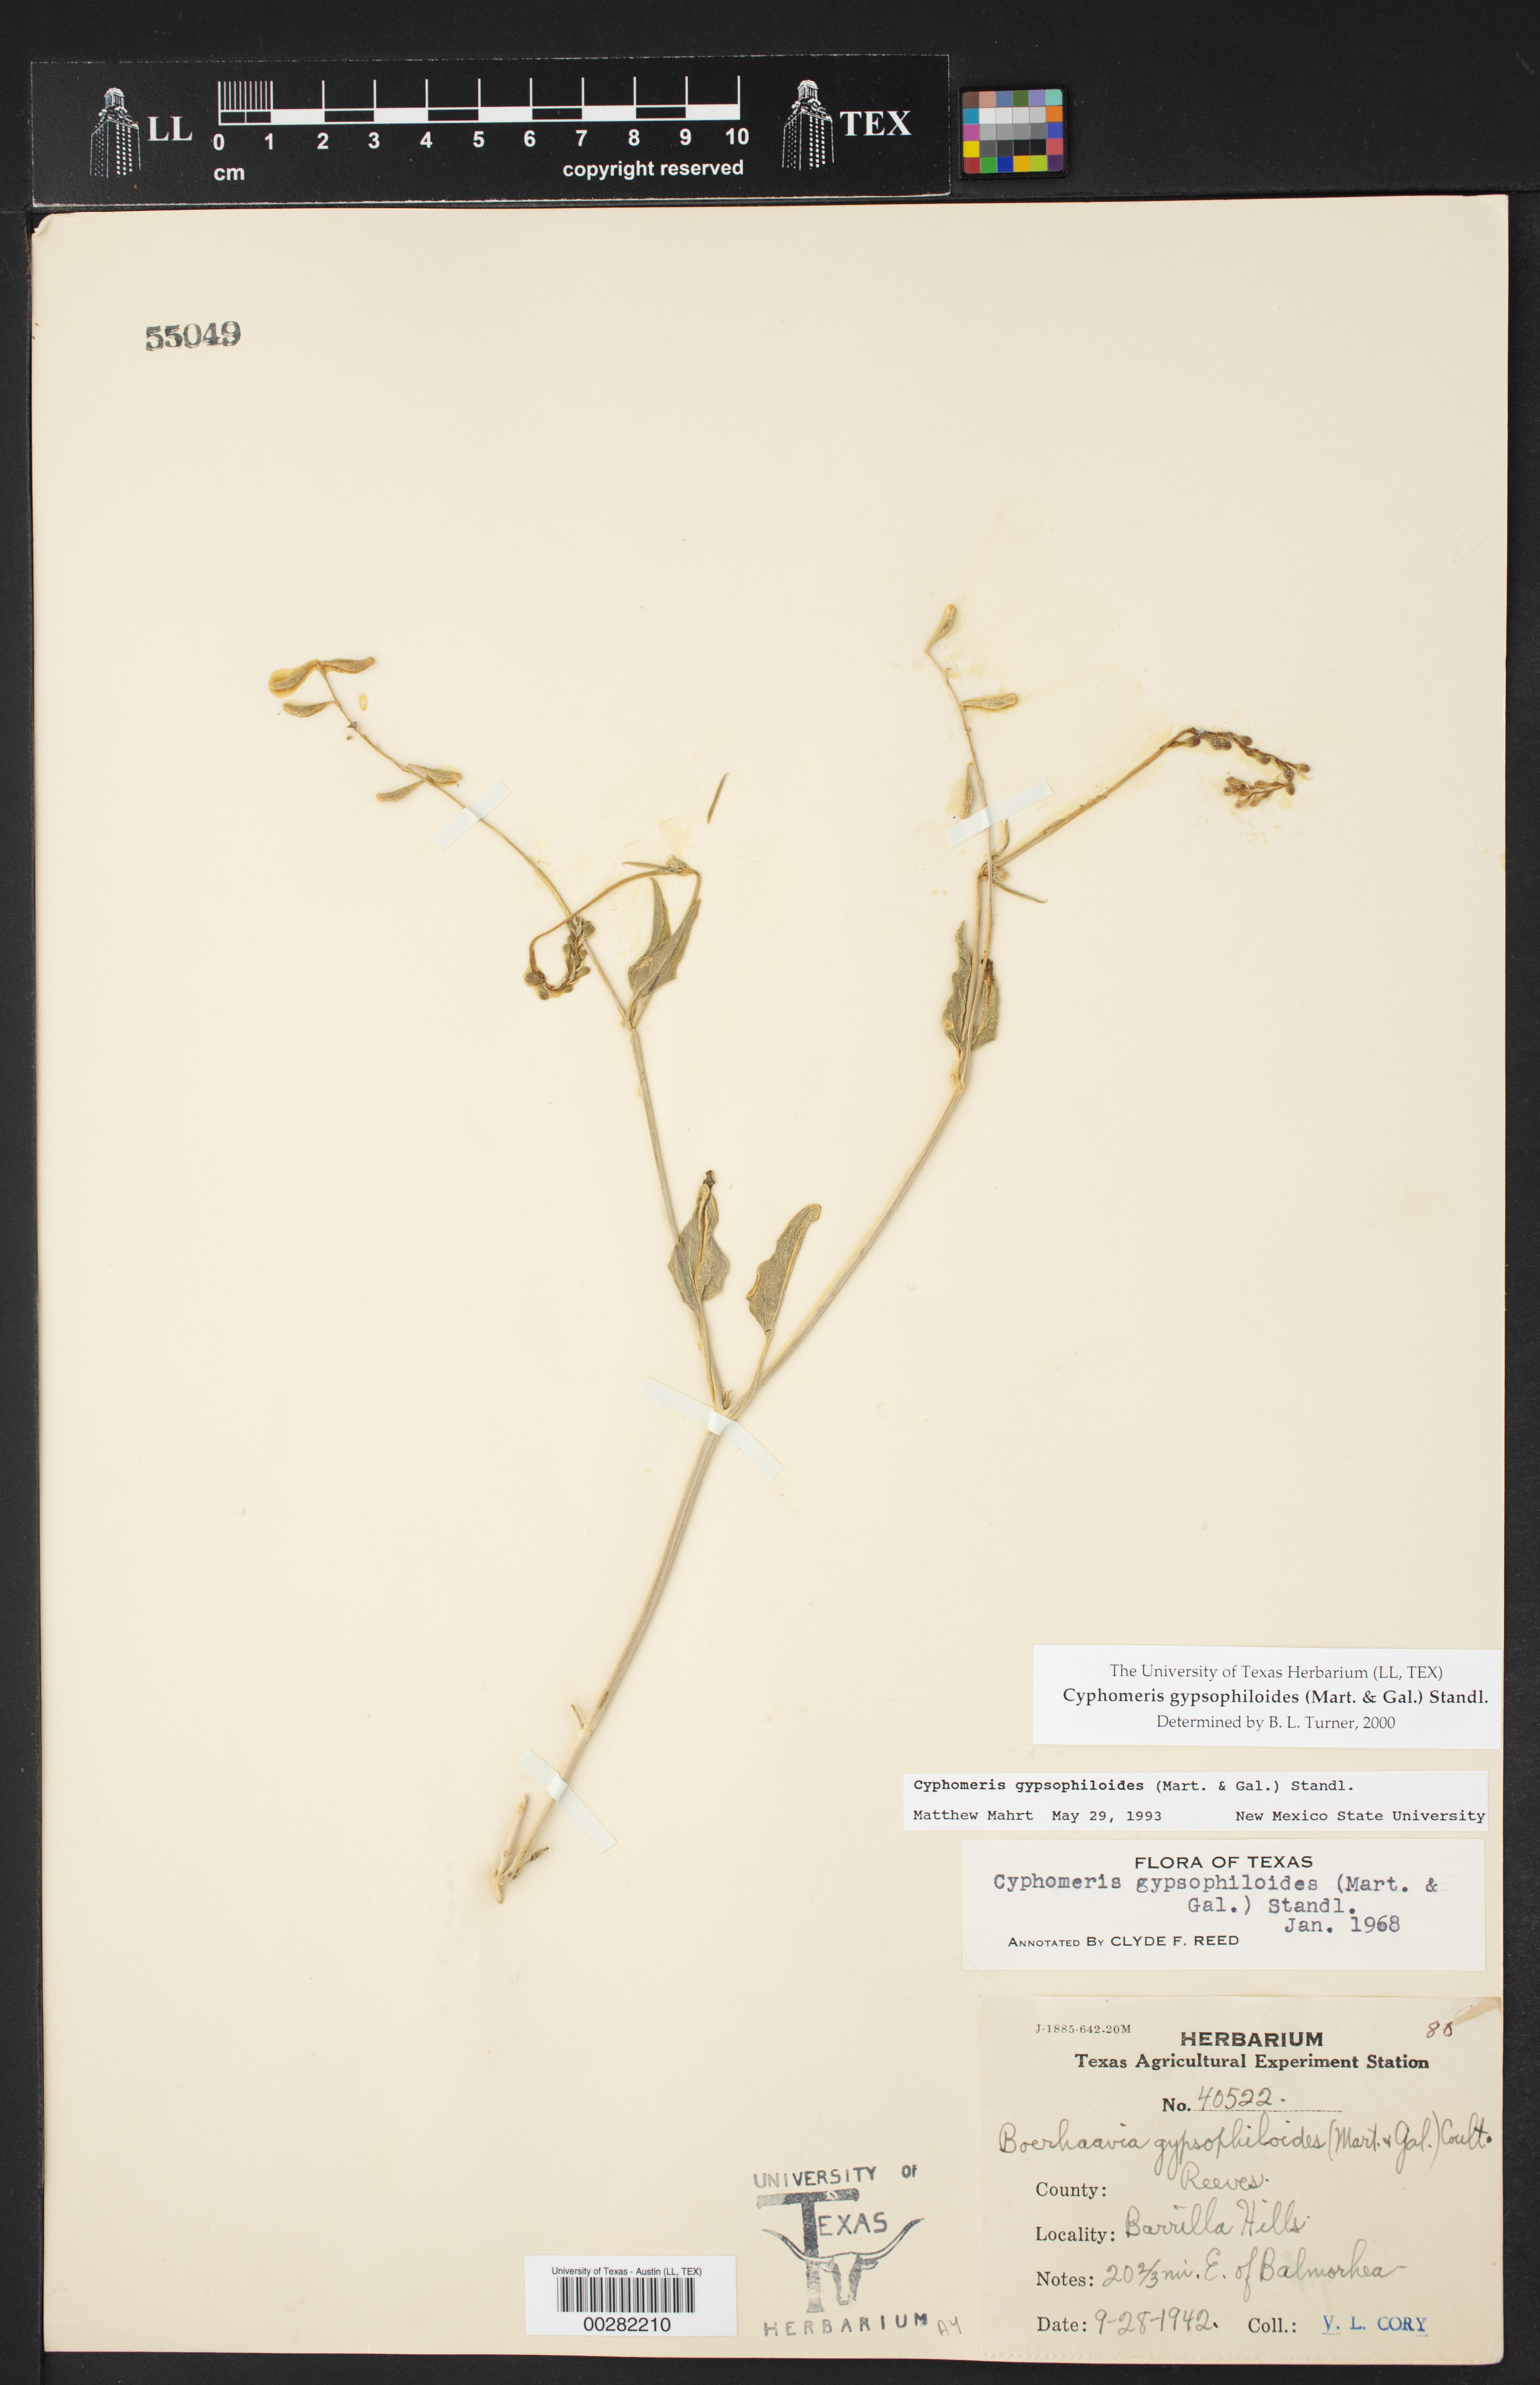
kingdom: Plantae
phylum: Tracheophyta
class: Magnoliopsida
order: Caryophyllales
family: Nyctaginaceae
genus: Cyphomeris
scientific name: Cyphomeris gypsophiloides
